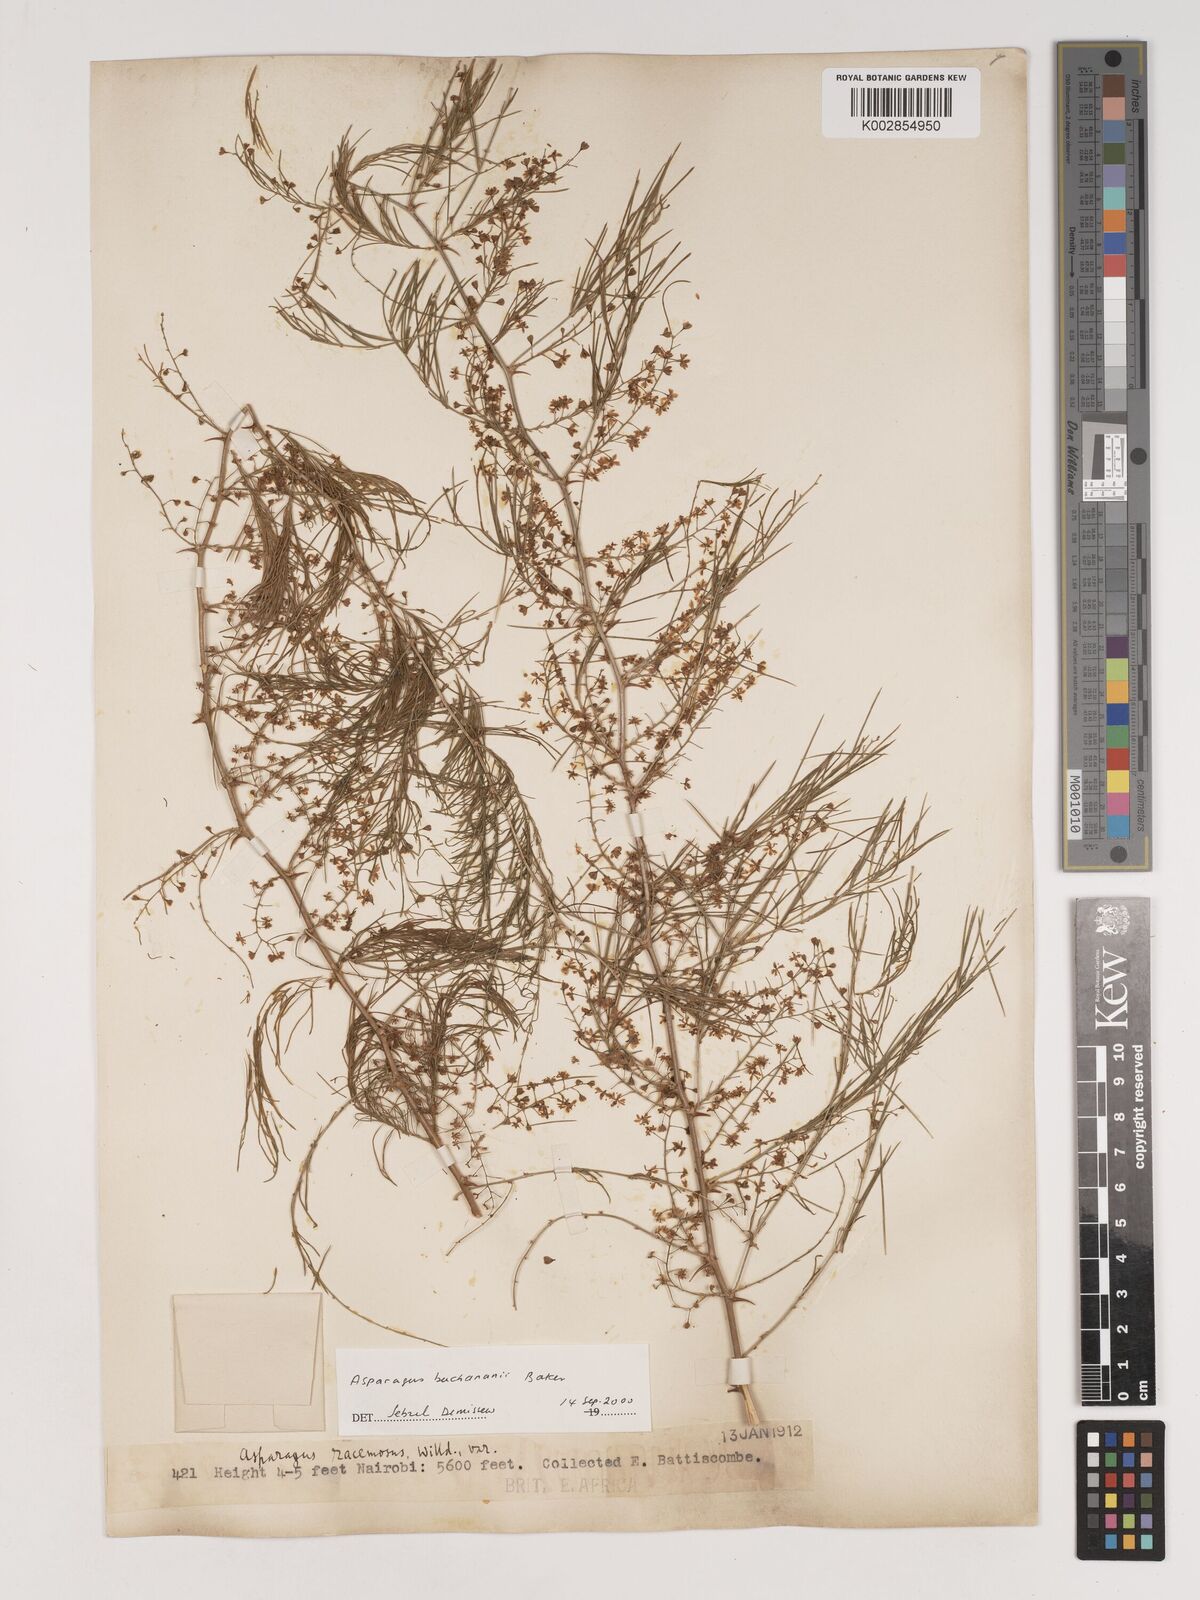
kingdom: Plantae
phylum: Tracheophyta
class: Liliopsida
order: Asparagales
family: Asparagaceae
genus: Asparagus
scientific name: Asparagus buchananii
